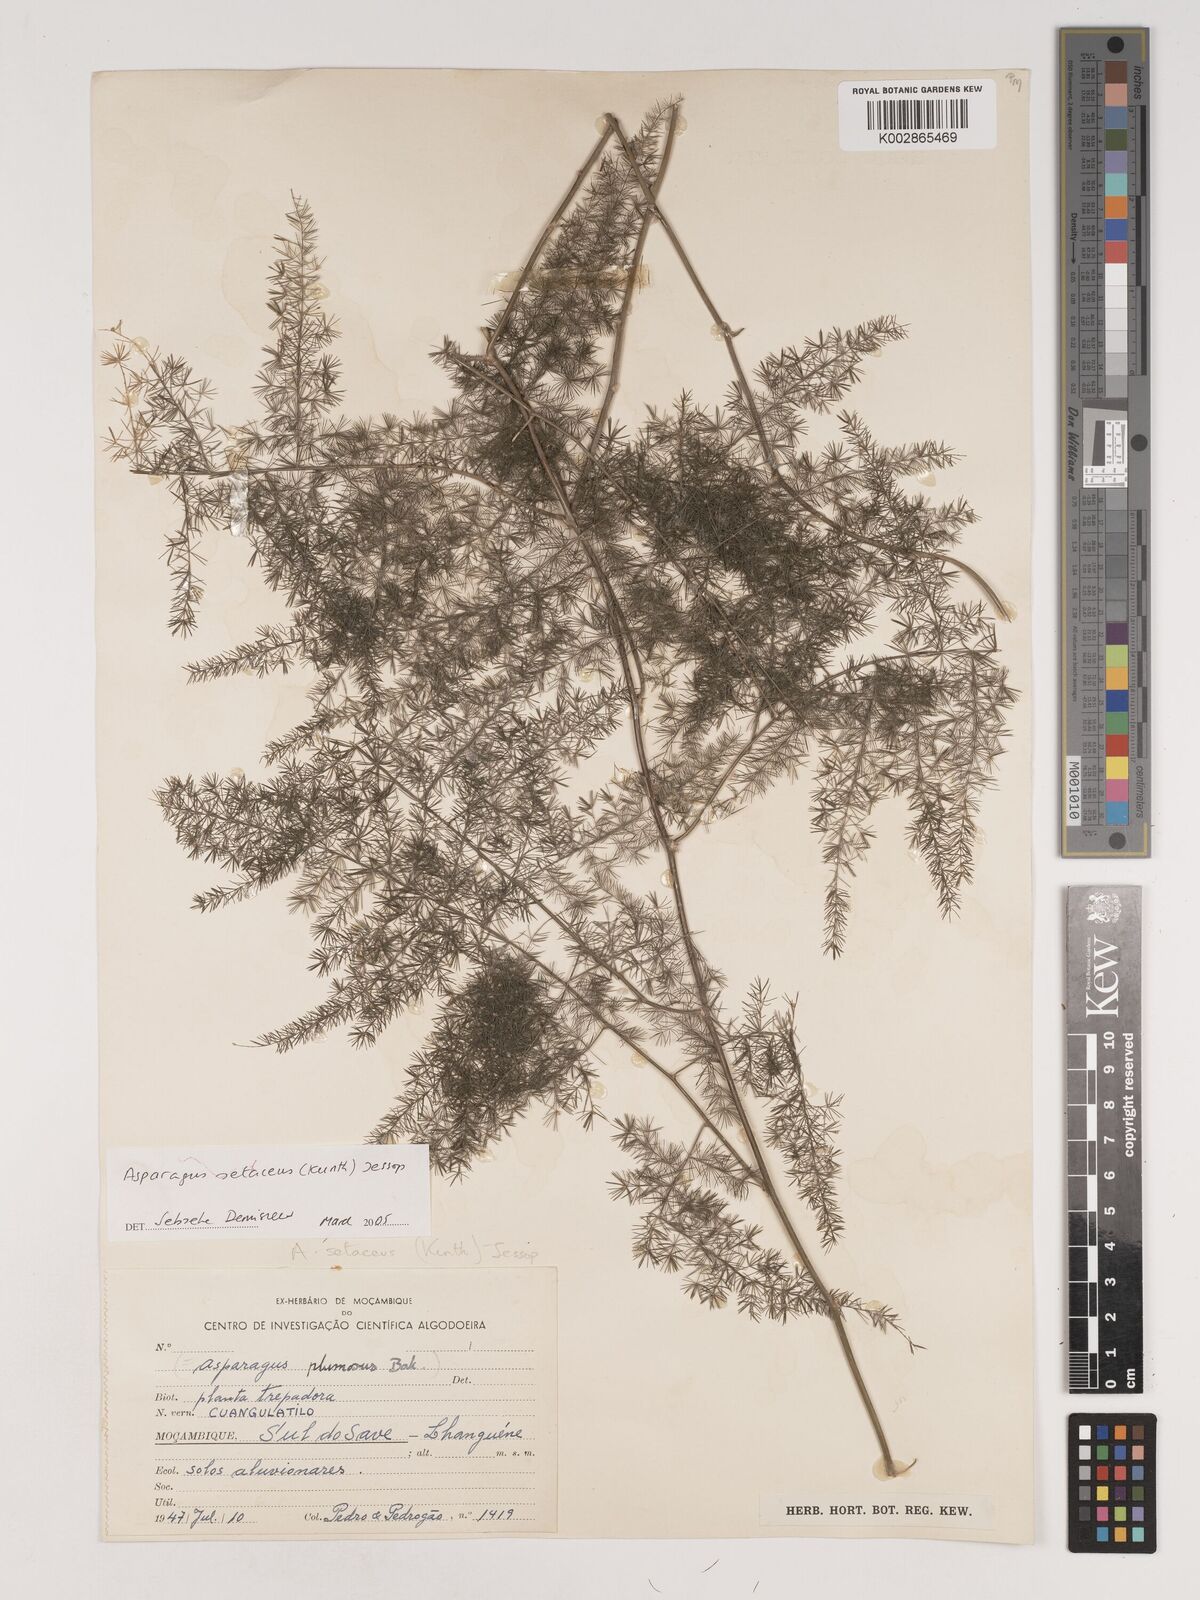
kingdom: Plantae
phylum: Tracheophyta
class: Liliopsida
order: Asparagales
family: Asparagaceae
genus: Asparagus
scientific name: Asparagus setaceus
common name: Common asparagus fern
